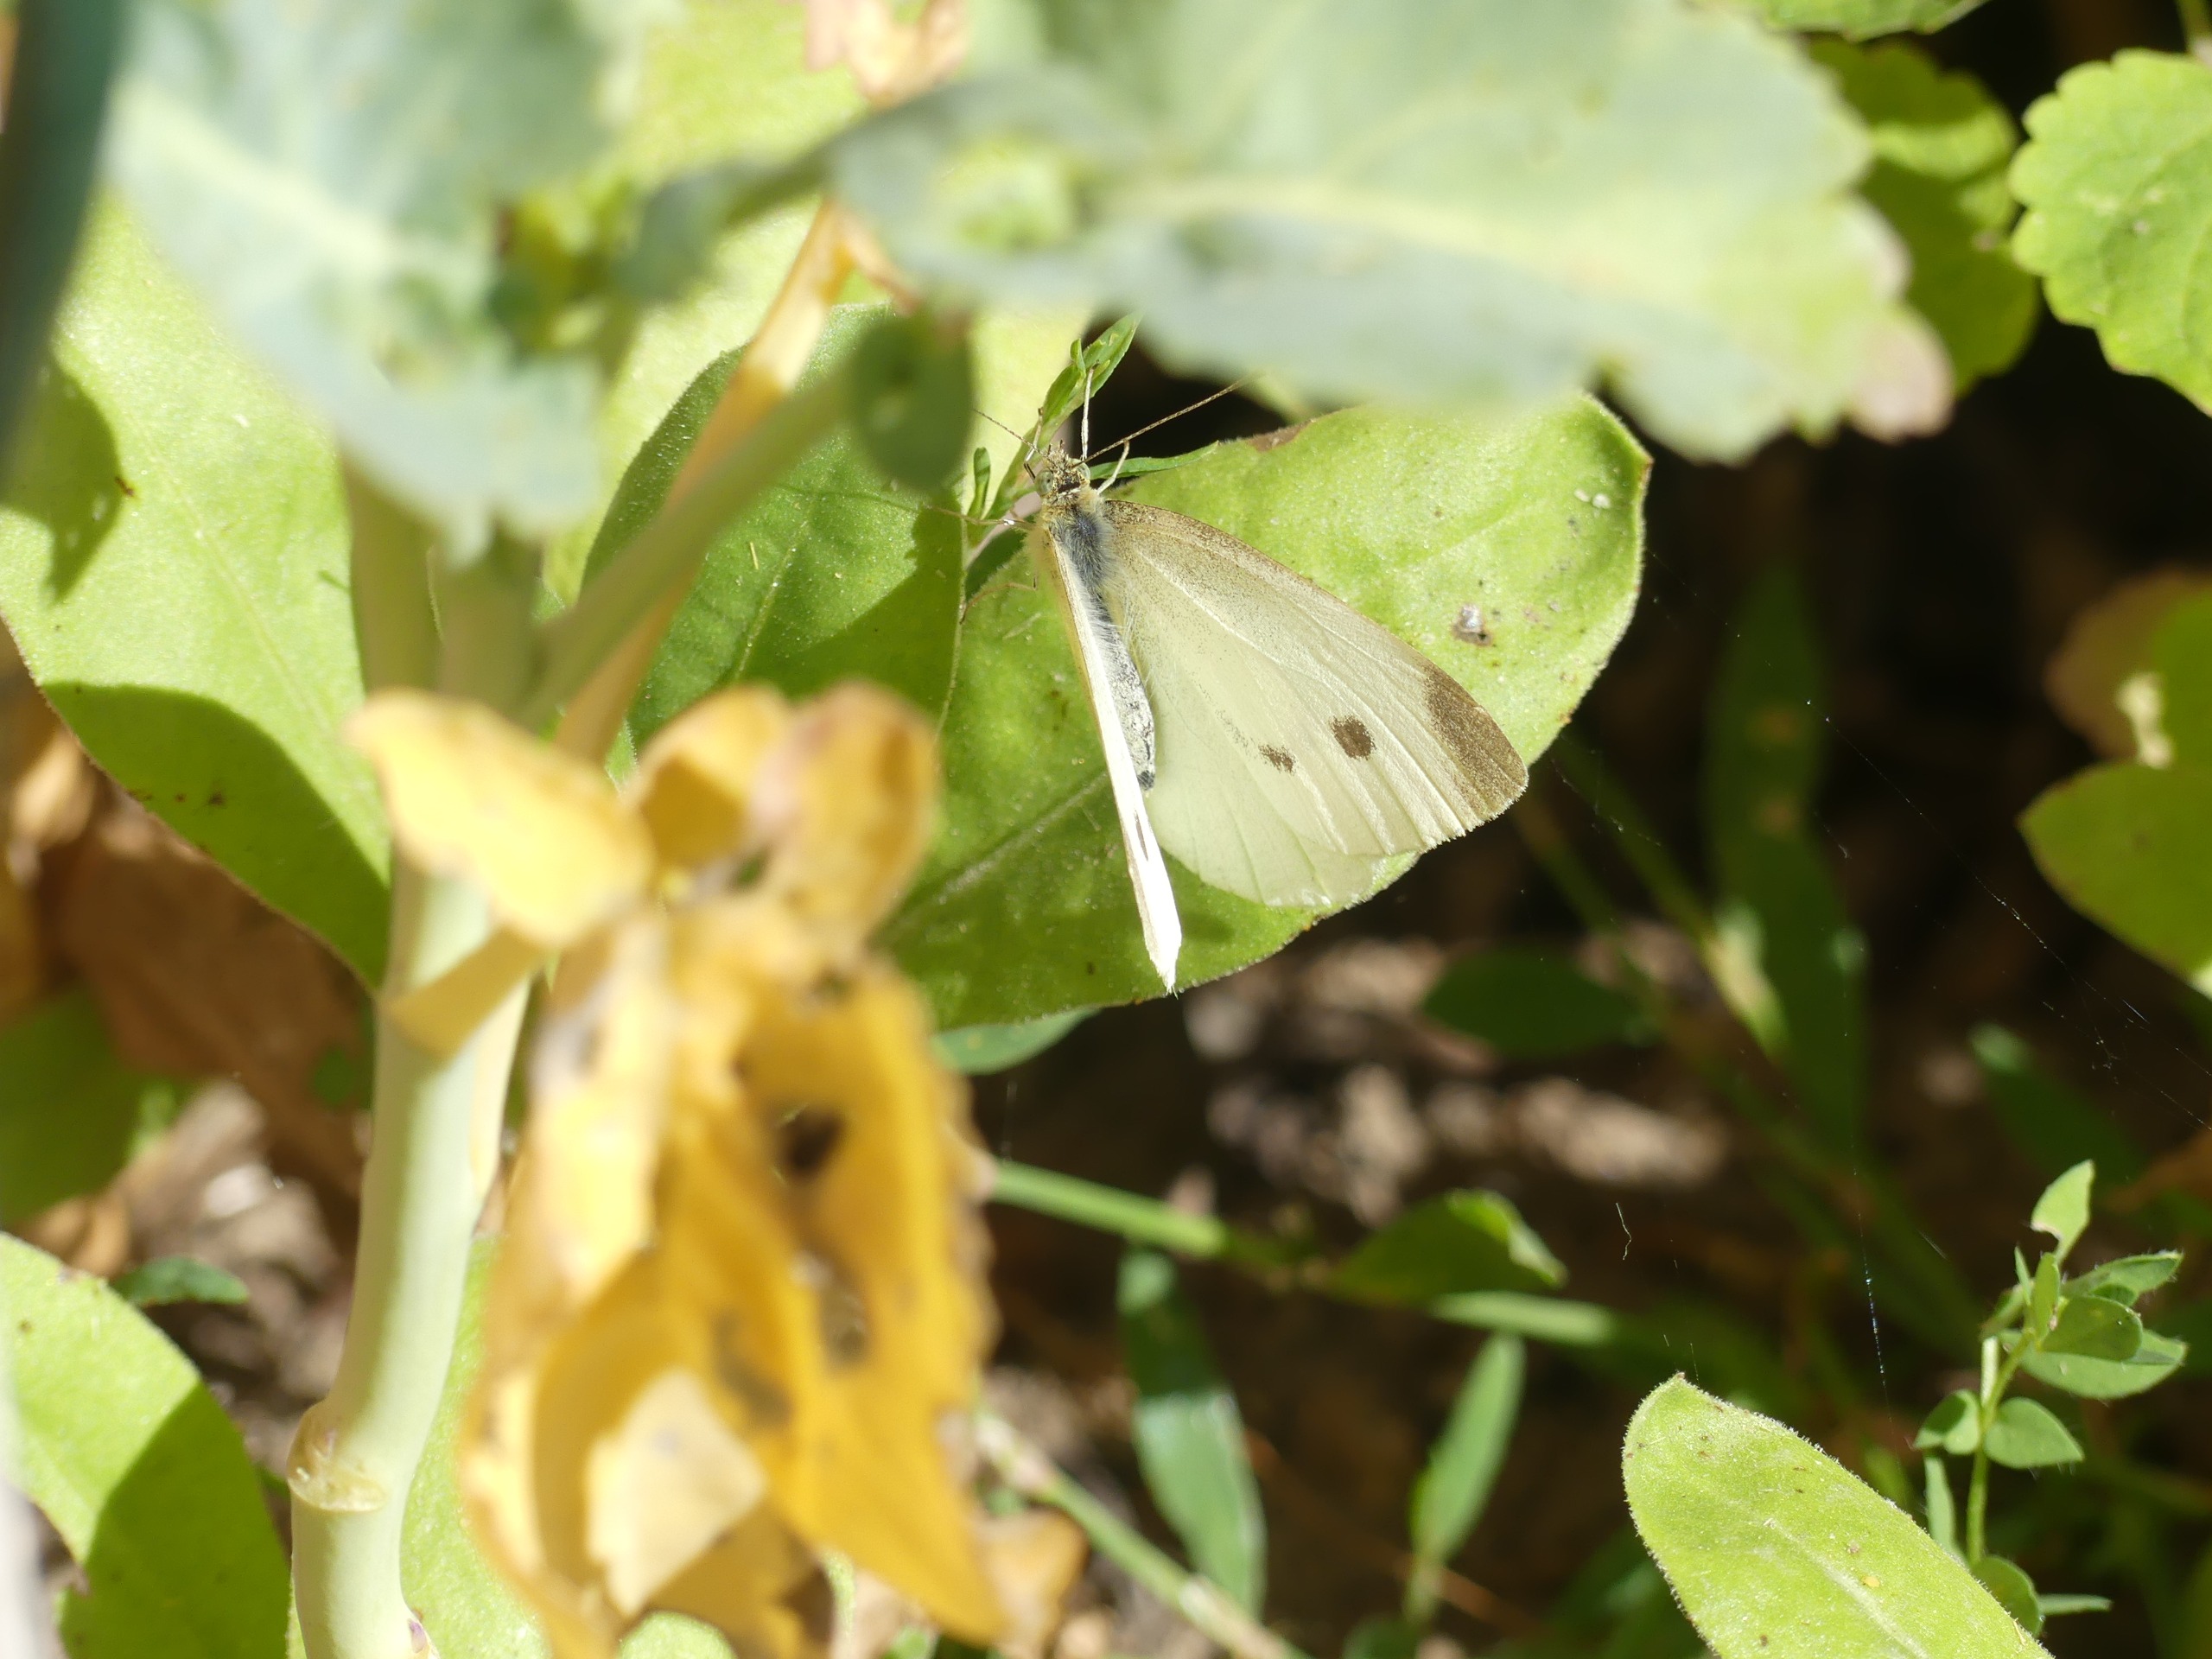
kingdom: Animalia
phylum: Arthropoda
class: Insecta
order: Lepidoptera
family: Pieridae
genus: Pieris
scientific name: Pieris rapae
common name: Lille kålsommerfugl
